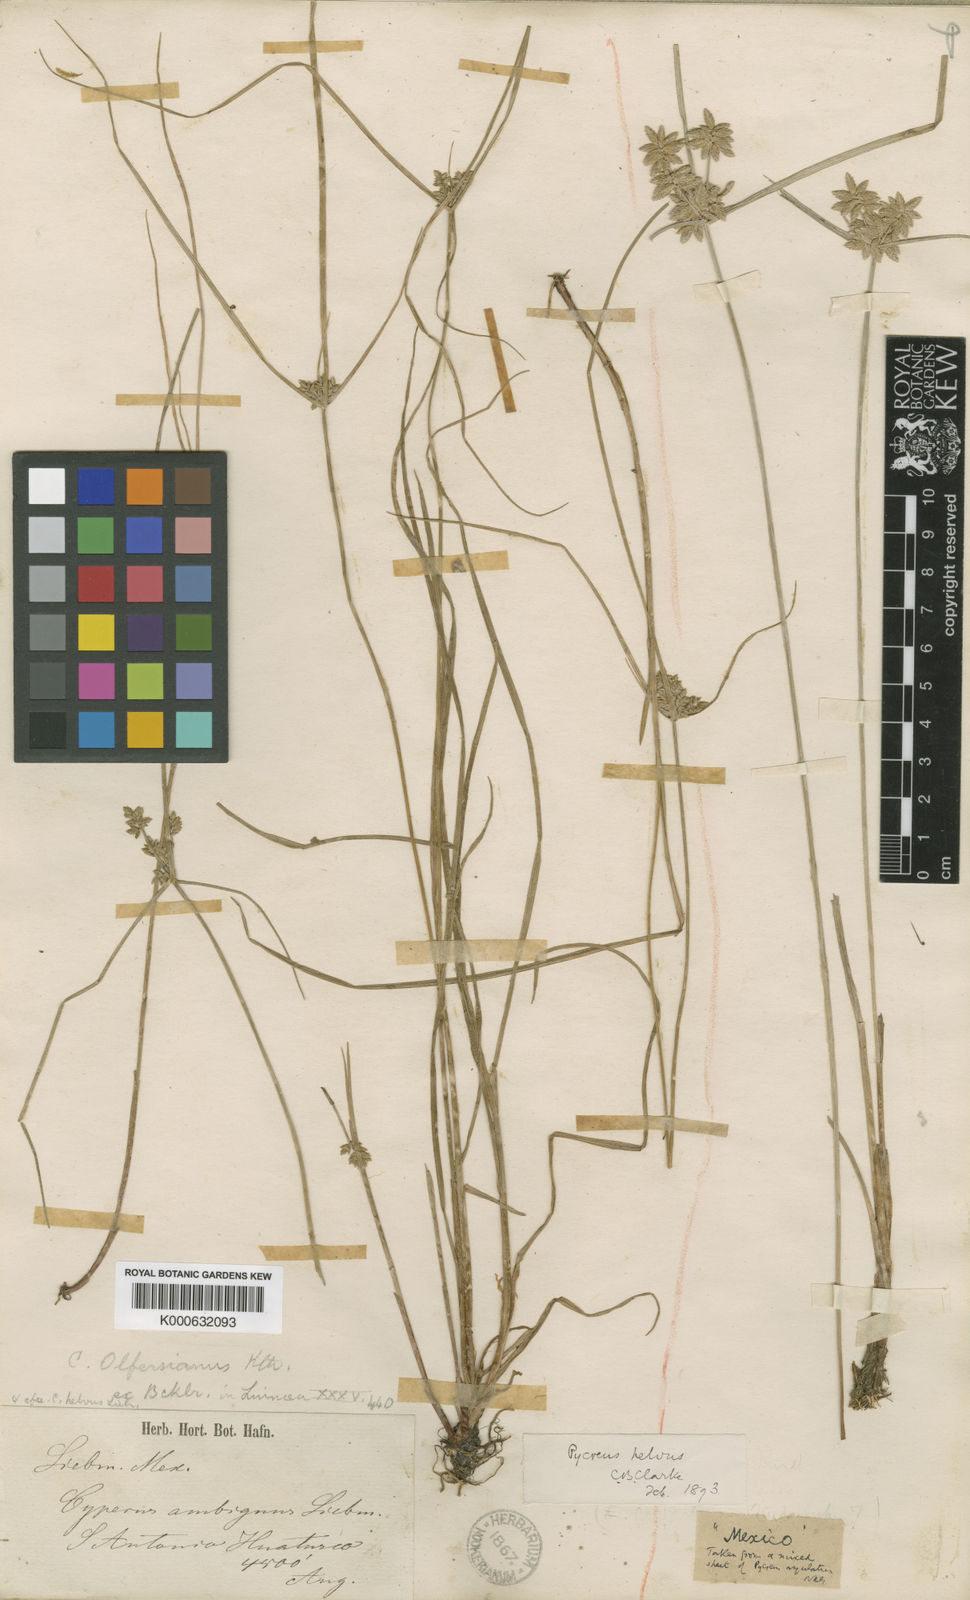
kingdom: Plantae
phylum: Tracheophyta
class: Liliopsida
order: Poales
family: Cyperaceae
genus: Cyperus
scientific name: Cyperus lanceolatus
